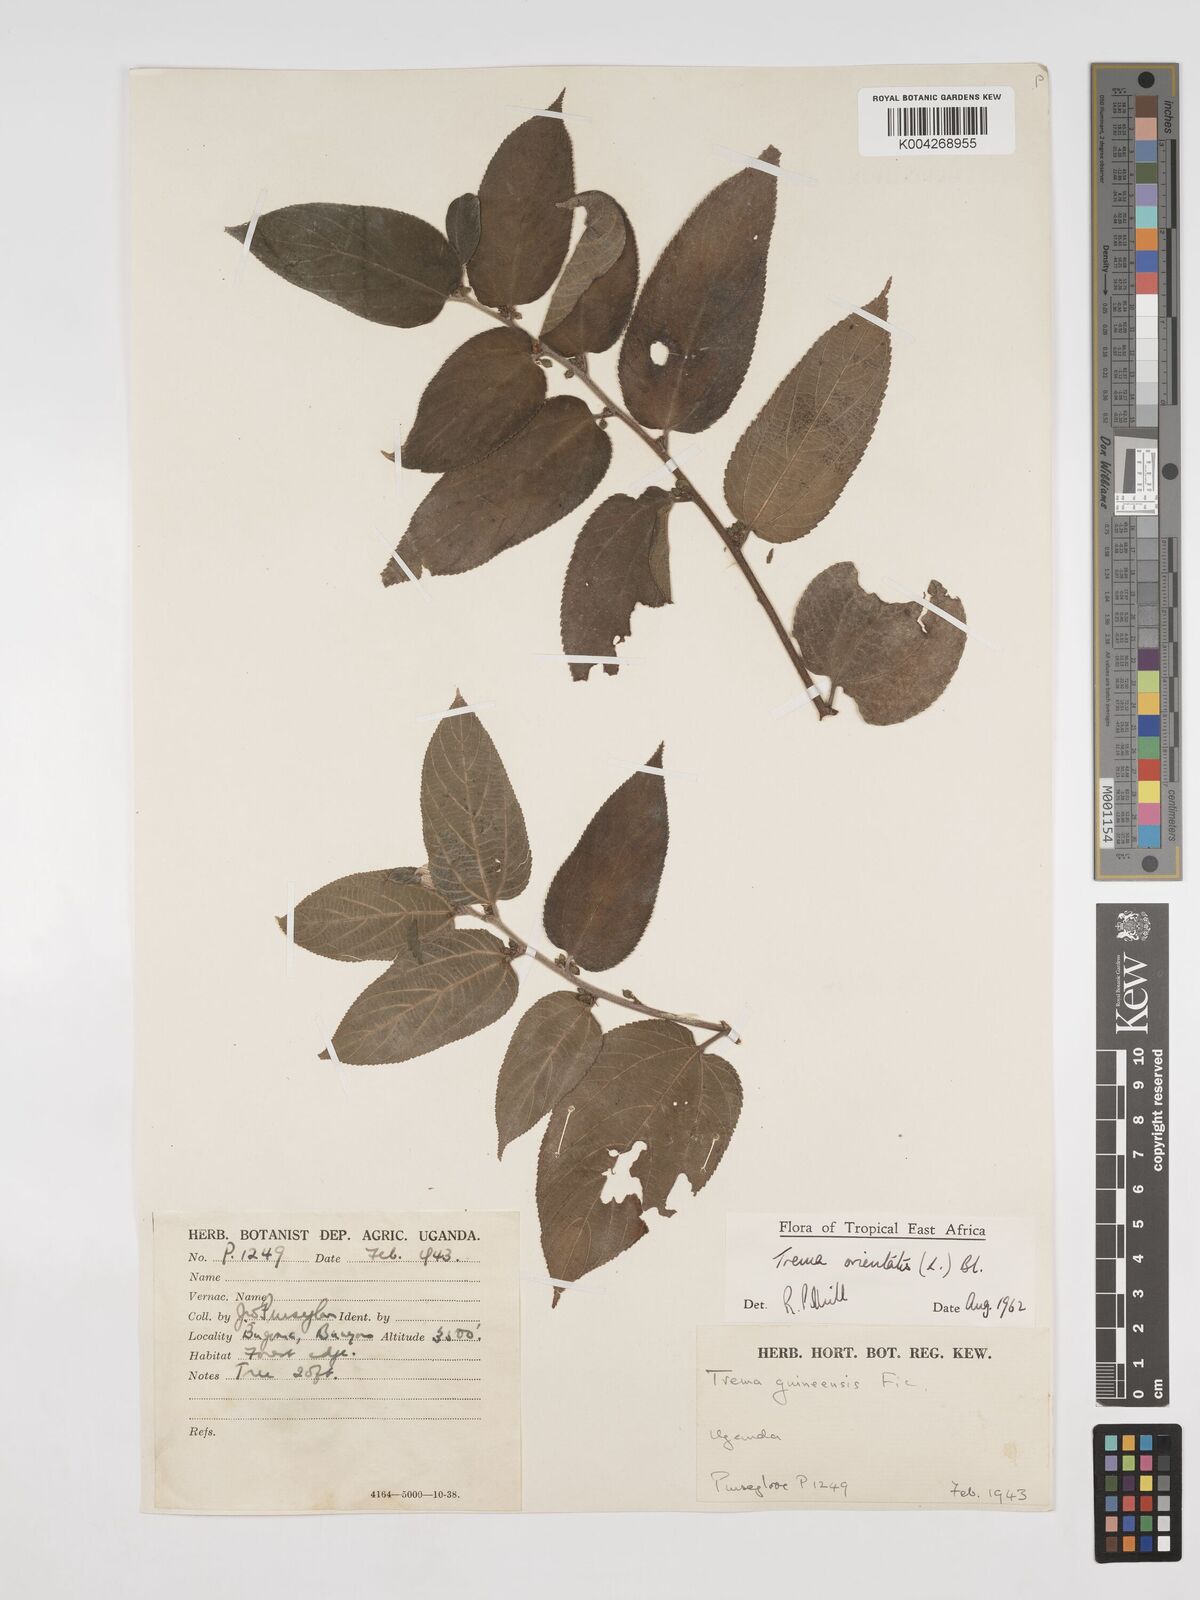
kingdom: Plantae
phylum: Tracheophyta
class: Magnoliopsida
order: Rosales
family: Cannabaceae
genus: Trema
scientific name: Trema orientale
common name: Indian charcoal tree
